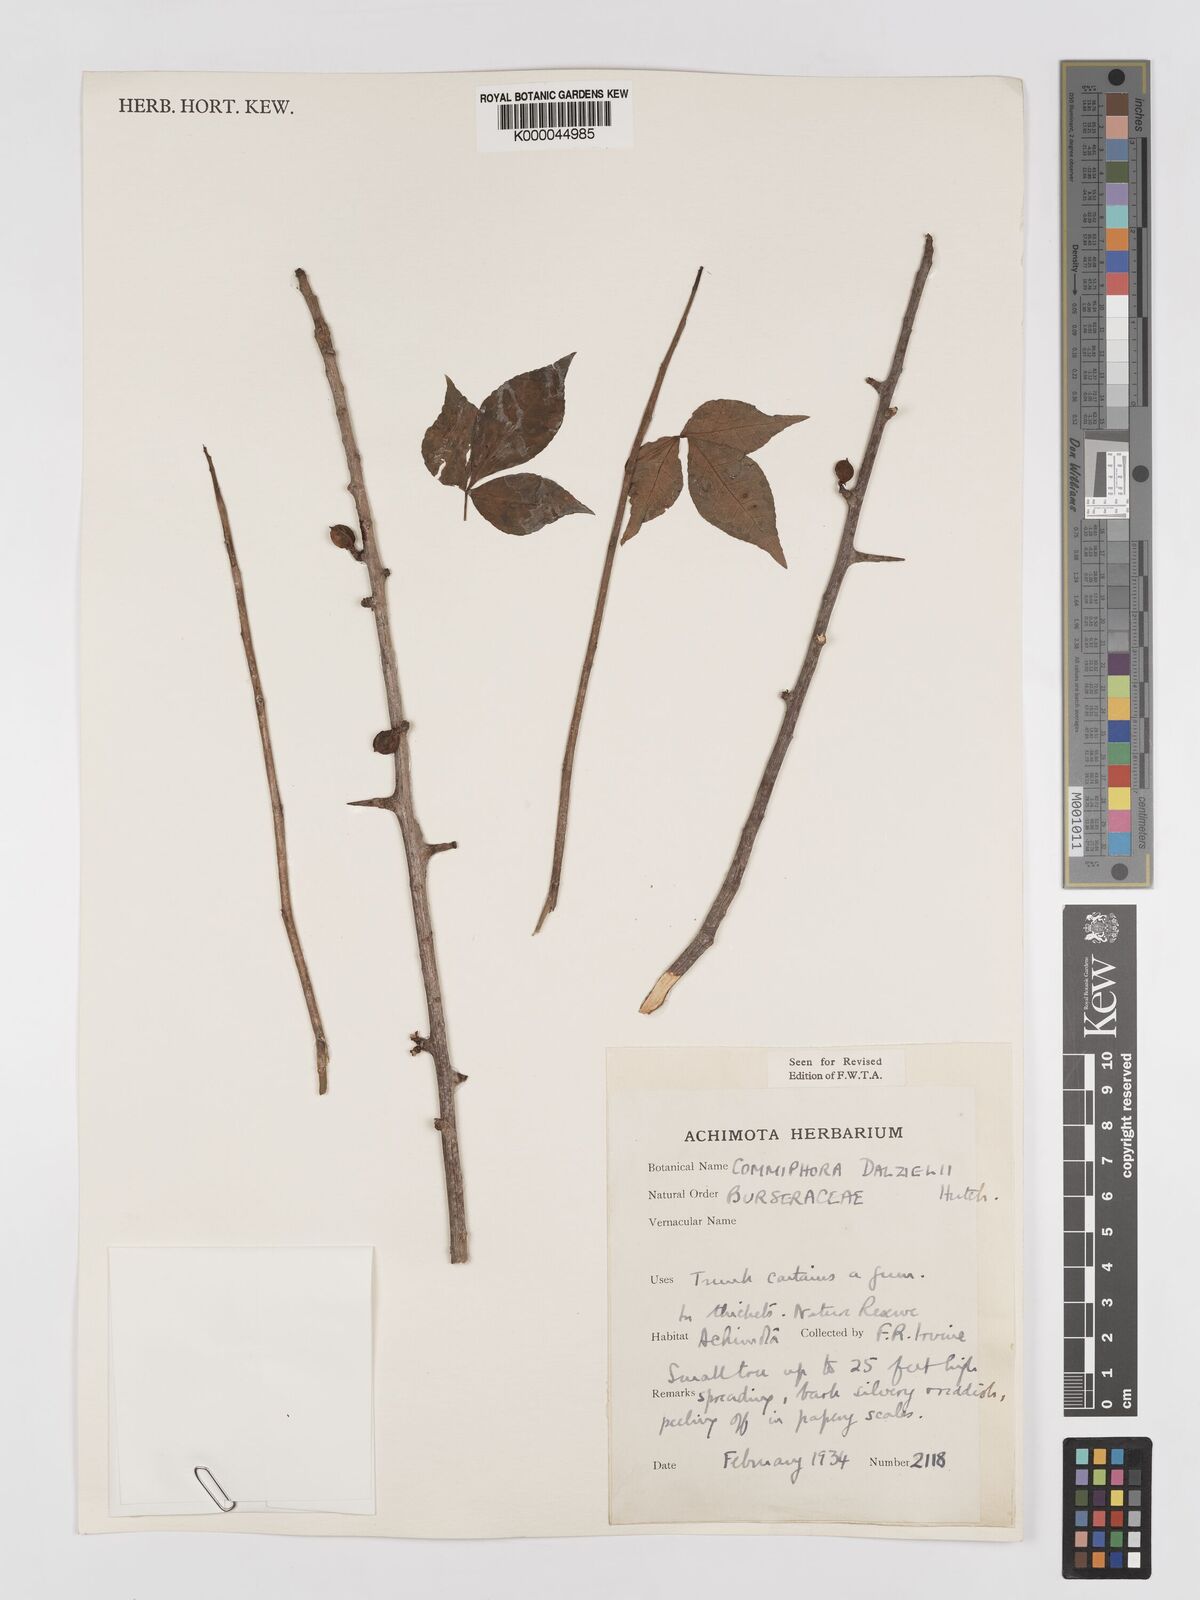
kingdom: Plantae
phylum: Tracheophyta
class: Magnoliopsida
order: Sapindales
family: Burseraceae
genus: Commiphora
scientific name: Commiphora dalzielii
